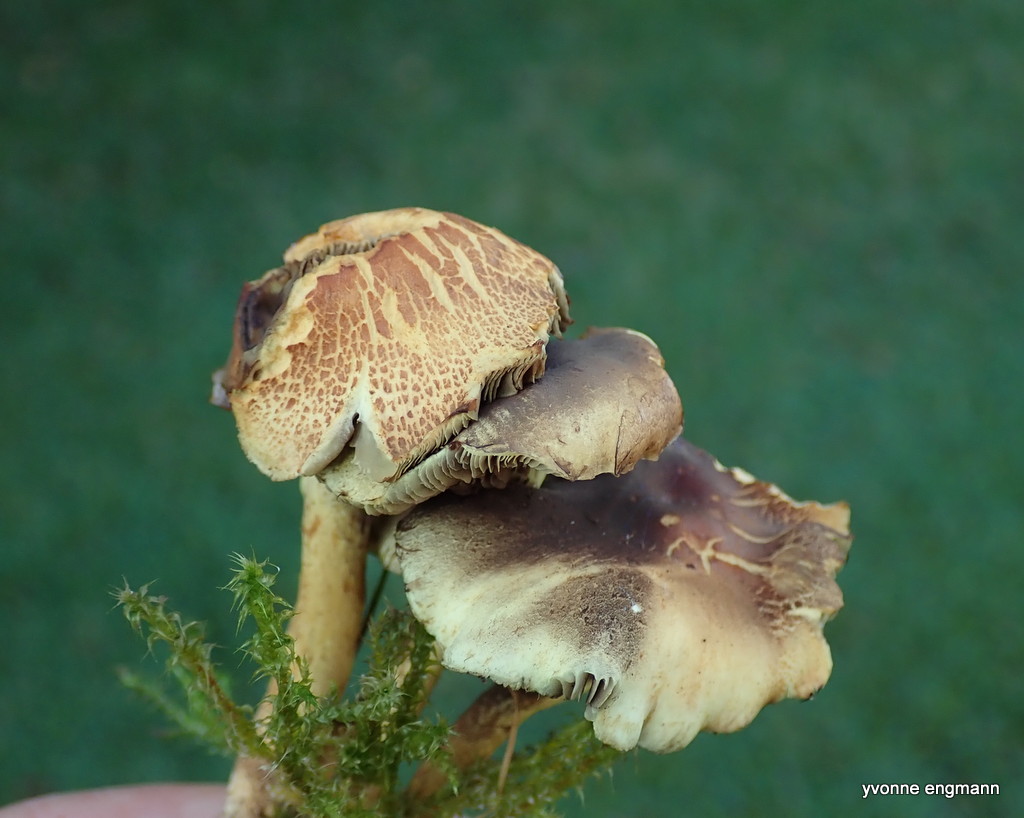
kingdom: Fungi
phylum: Basidiomycota
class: Agaricomycetes
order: Agaricales
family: Strophariaceae
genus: Hypholoma
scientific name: Hypholoma fasciculare
